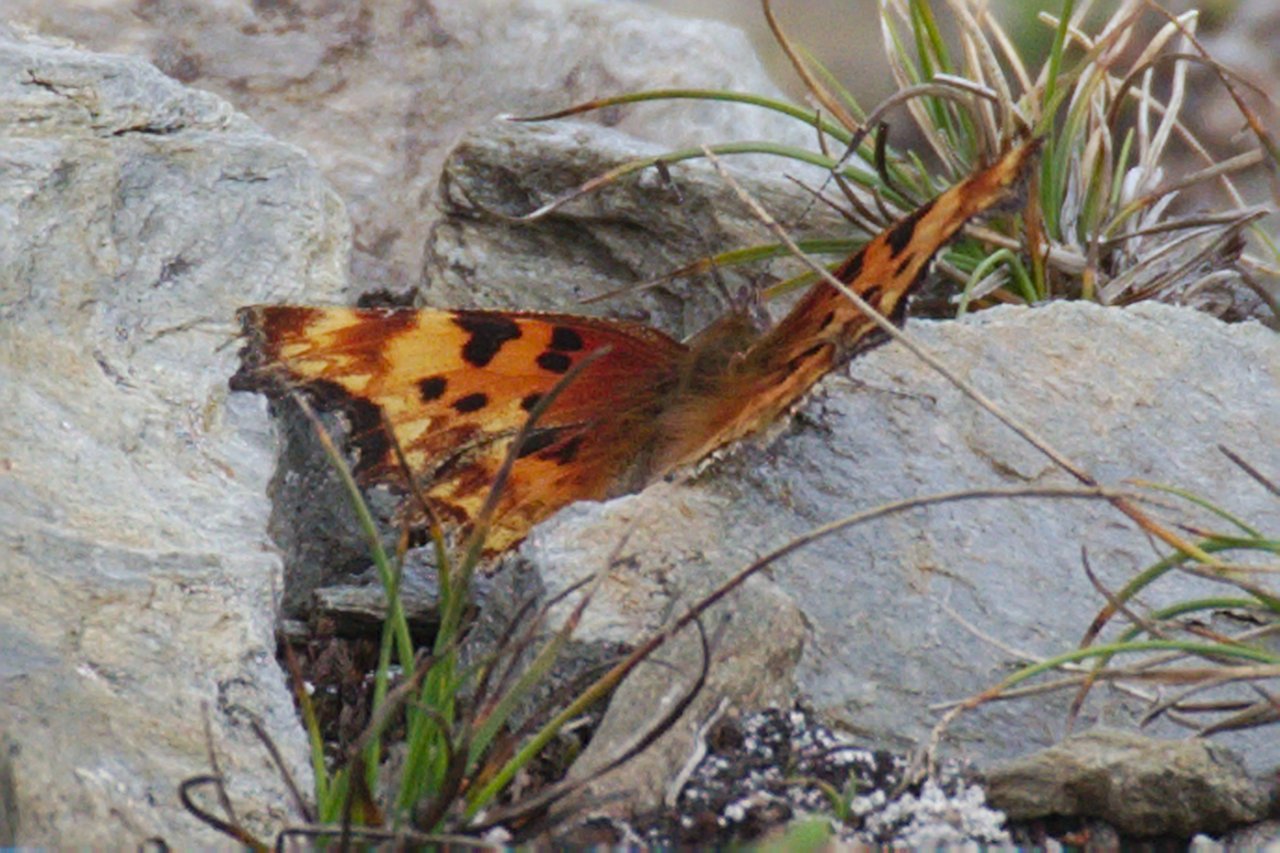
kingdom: Animalia
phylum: Arthropoda
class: Insecta
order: Lepidoptera
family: Nymphalidae
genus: Polygonia
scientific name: Polygonia gracilis
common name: Hoary Comma
